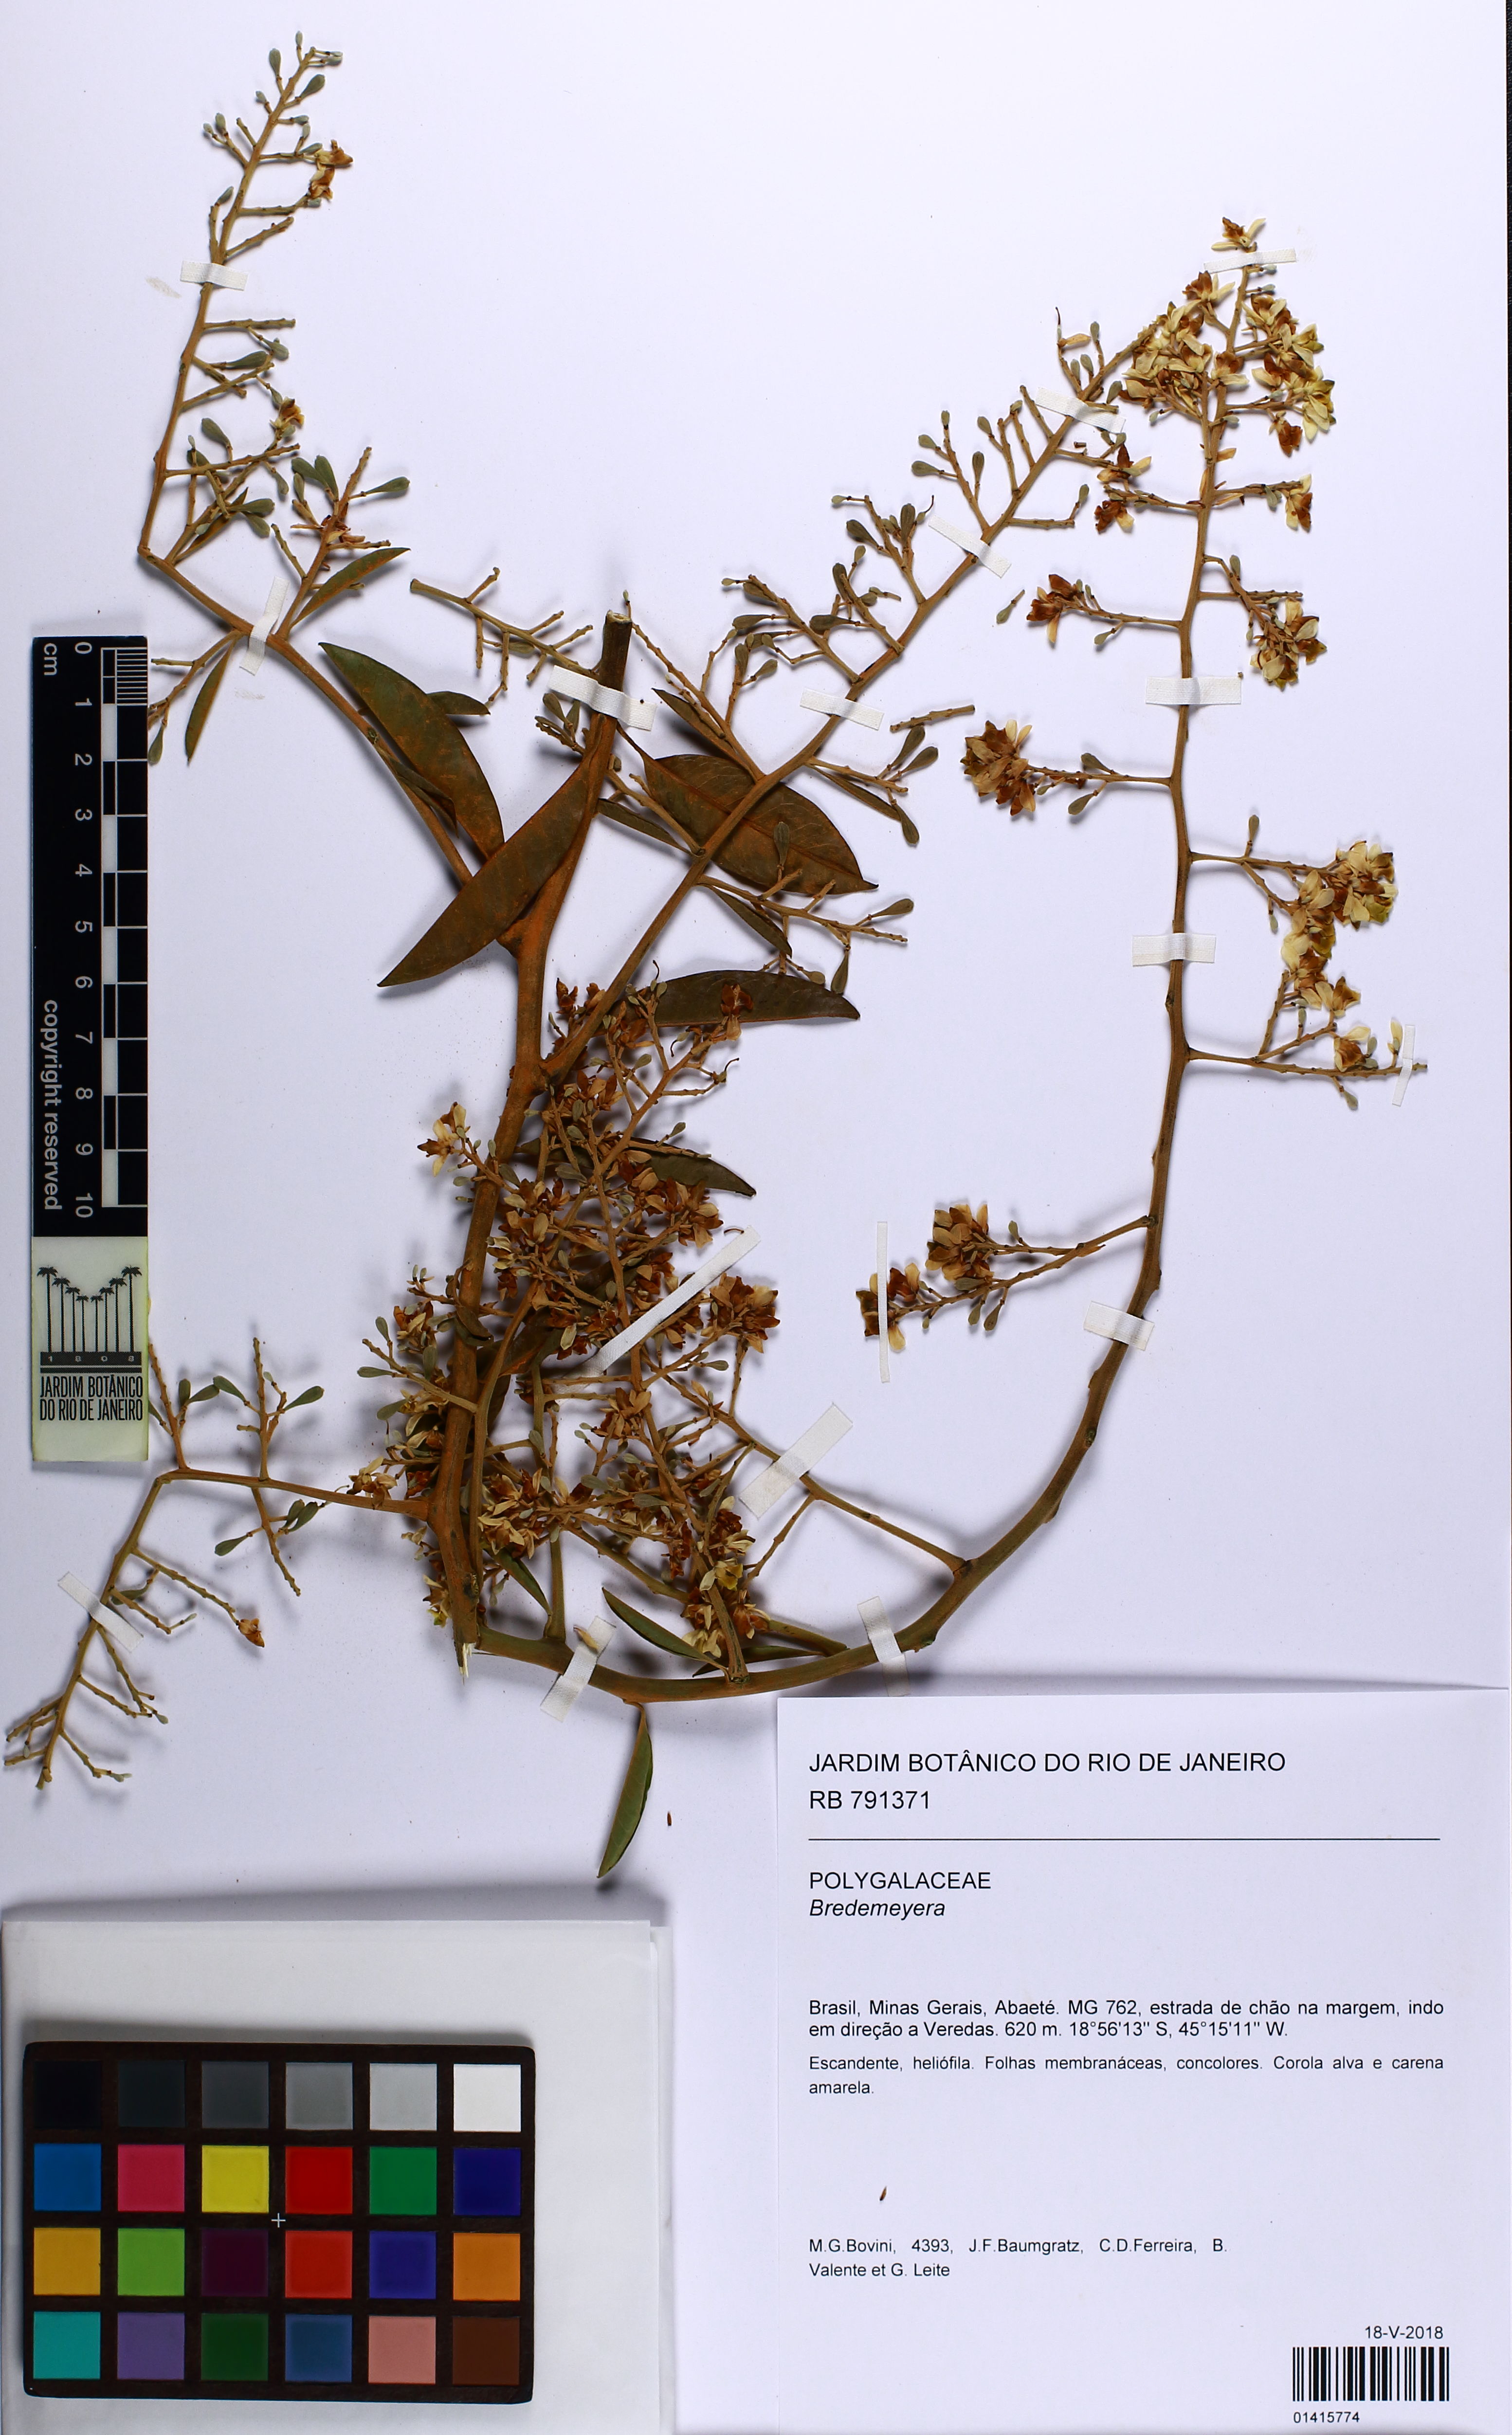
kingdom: Plantae
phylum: Tracheophyta
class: Magnoliopsida
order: Fabales
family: Polygalaceae
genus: Bredemeyera
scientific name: Bredemeyera
